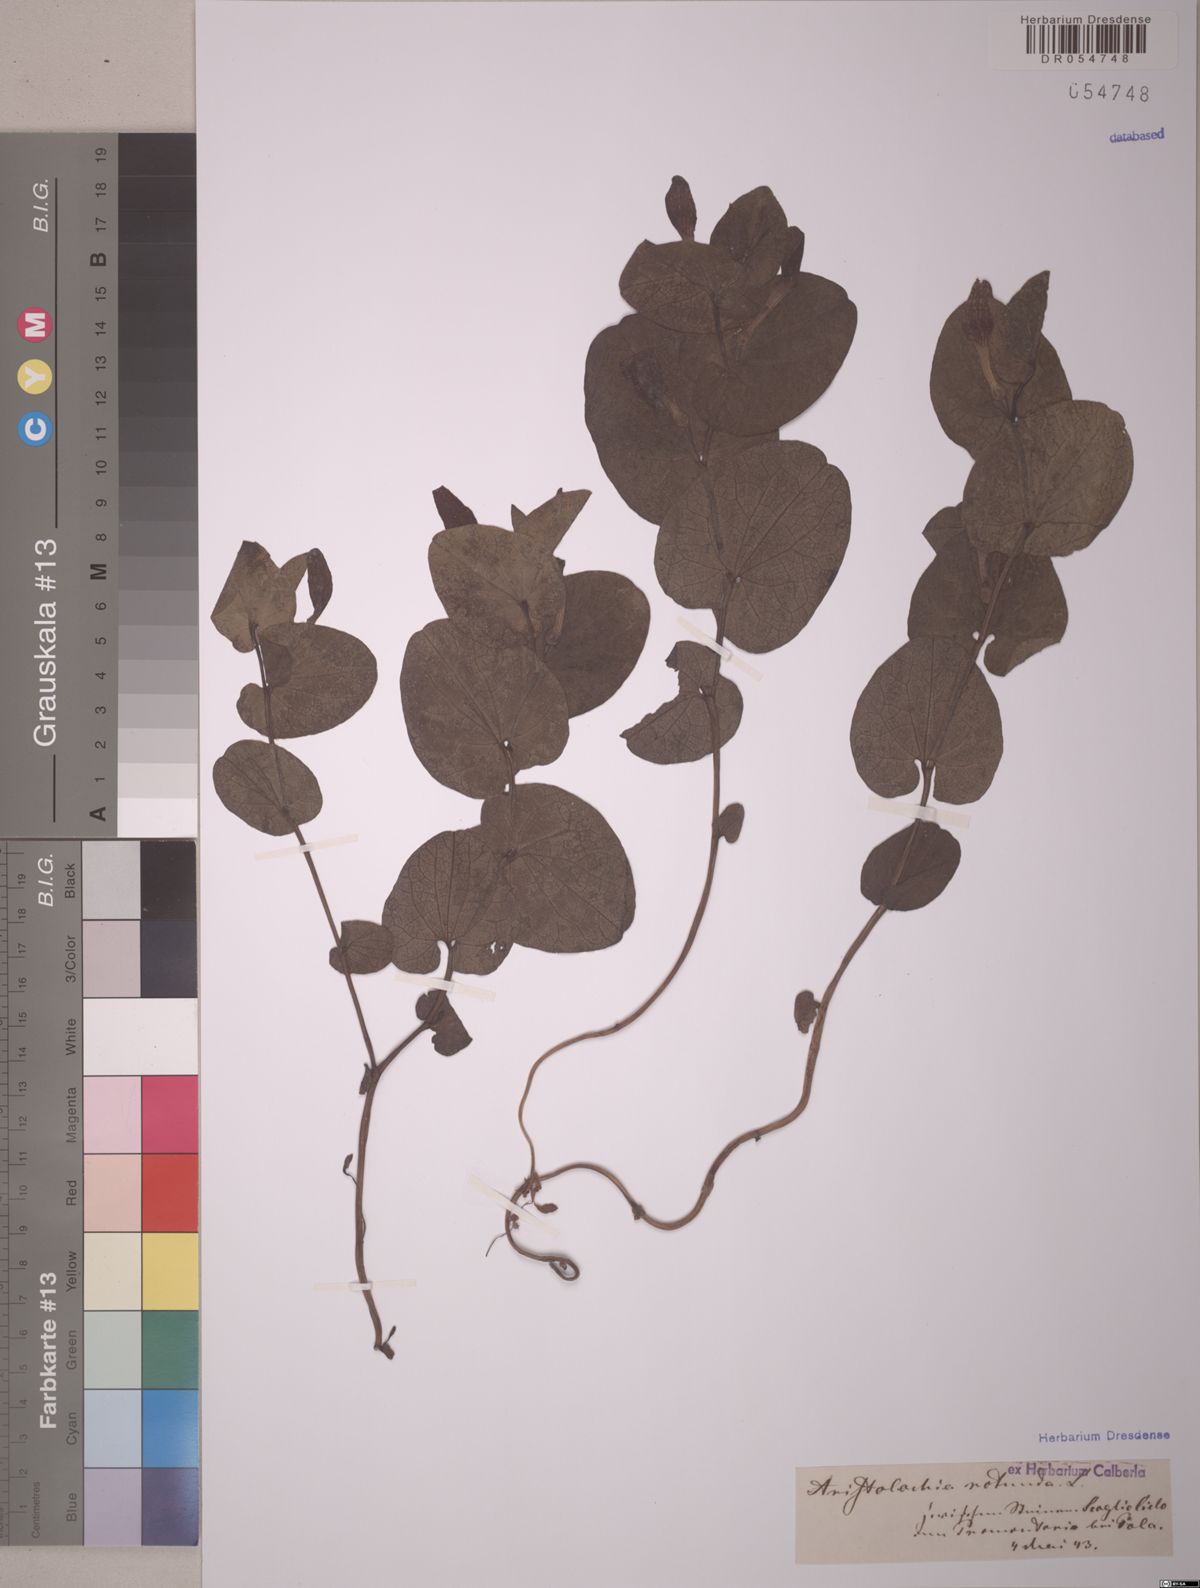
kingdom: Plantae
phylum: Tracheophyta
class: Magnoliopsida
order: Piperales
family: Aristolochiaceae
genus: Aristolochia
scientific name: Aristolochia rotunda
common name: Smearwort
